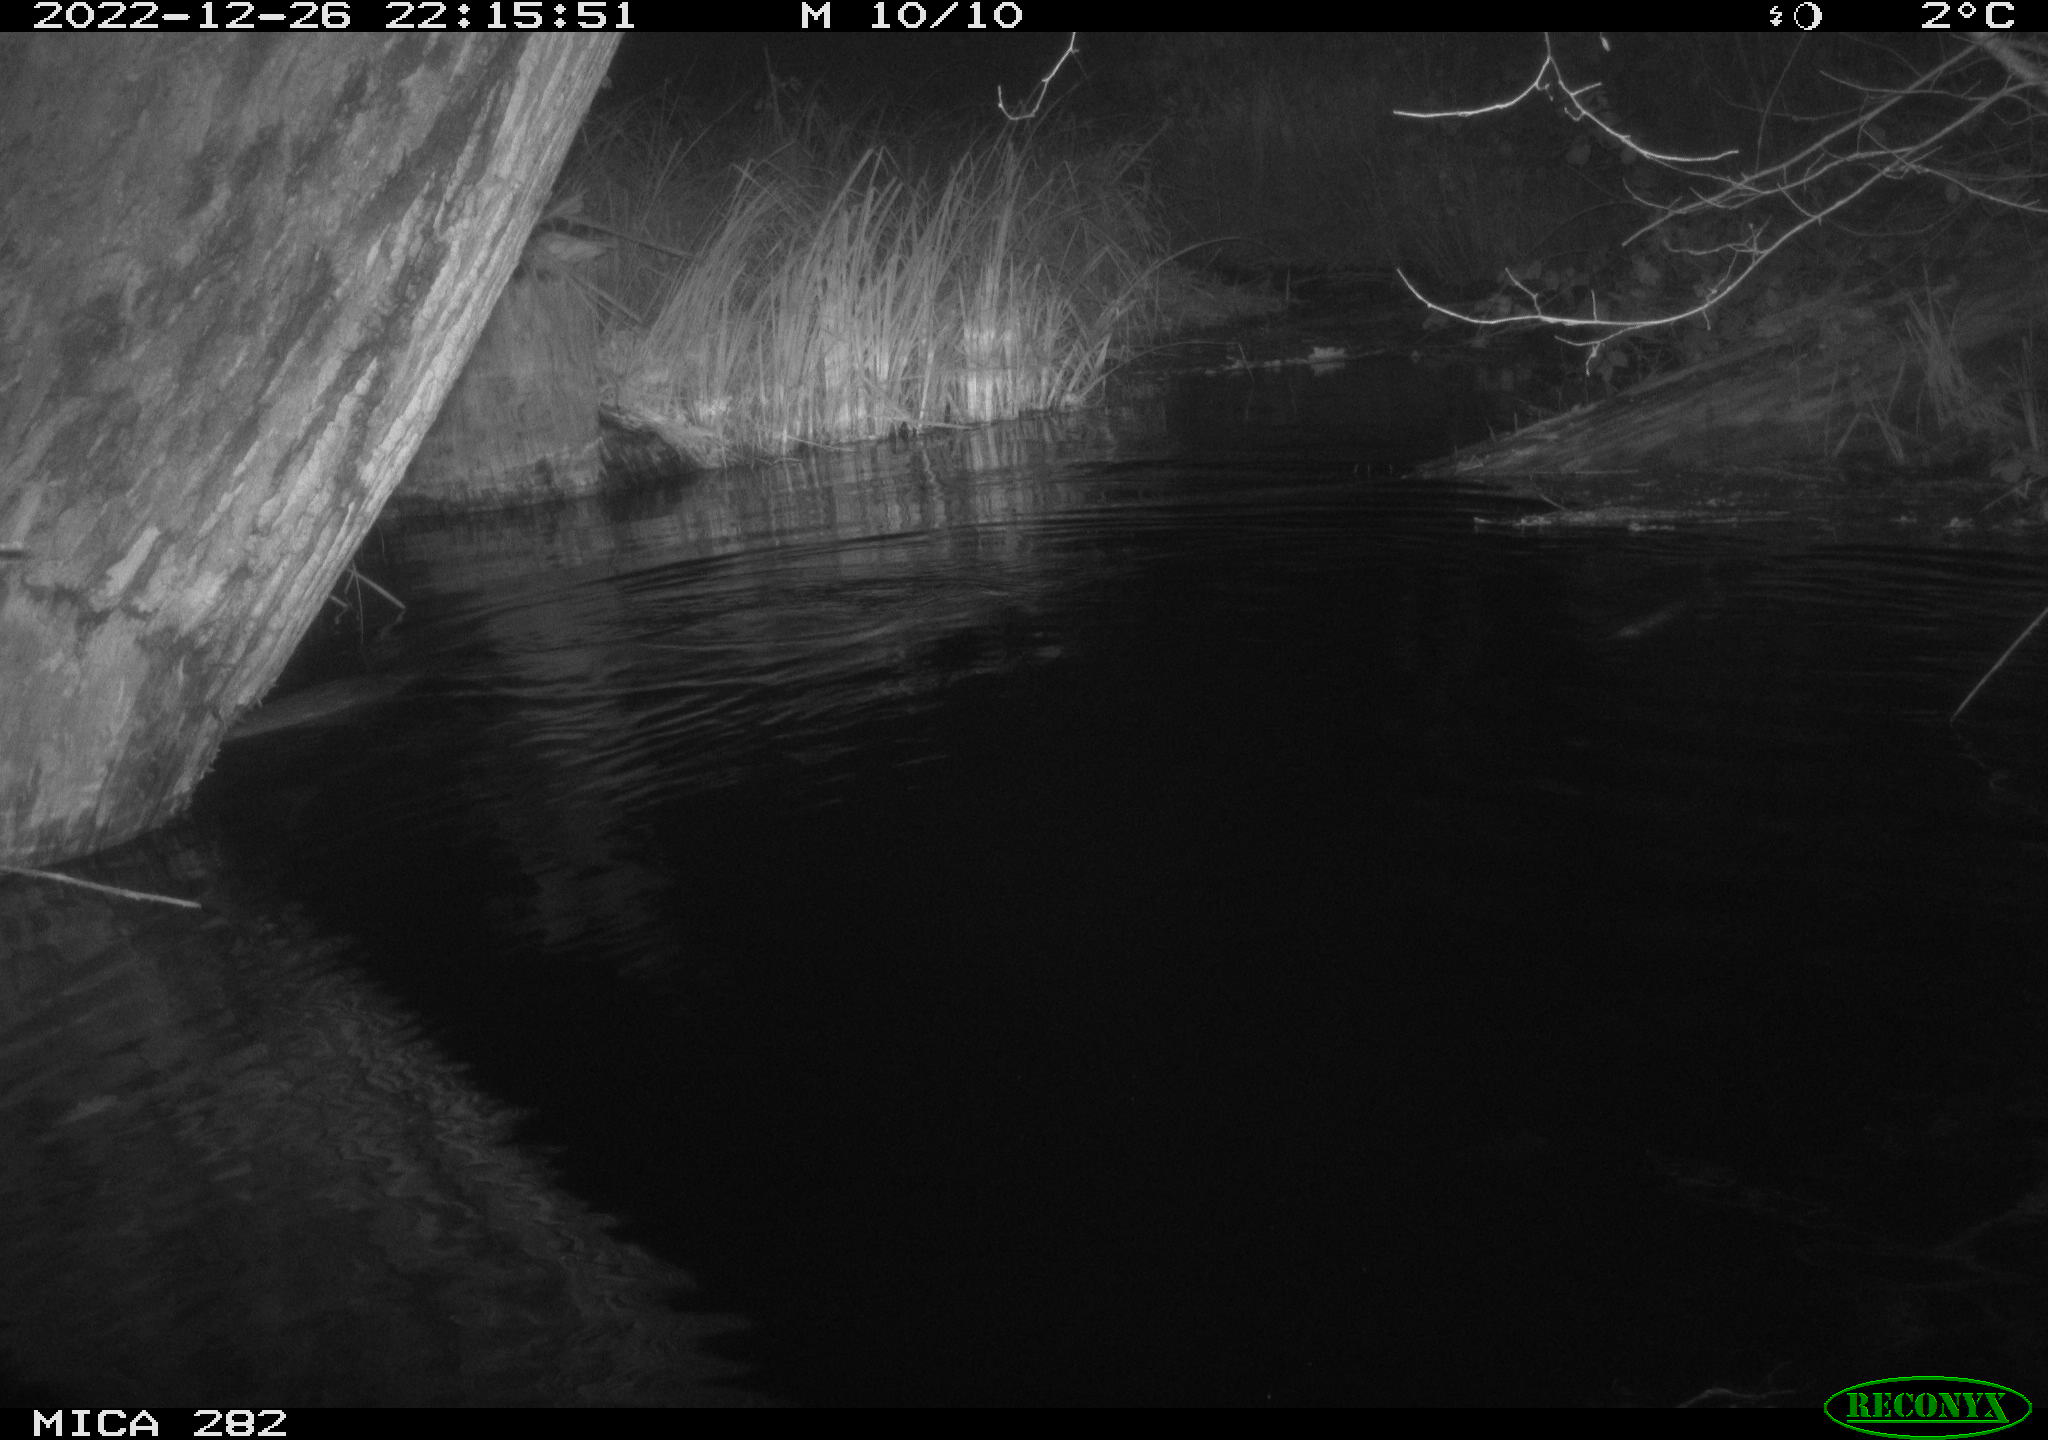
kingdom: Animalia
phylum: Chordata
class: Mammalia
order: Rodentia
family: Castoridae
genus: Castor
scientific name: Castor fiber
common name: Eurasian beaver
